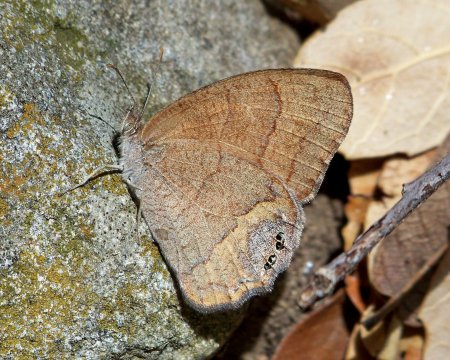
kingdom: Animalia
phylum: Arthropoda
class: Insecta
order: Lepidoptera
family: Nymphalidae
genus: Euptychia
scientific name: Euptychia pyracmon
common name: Nabokov's Satyr
